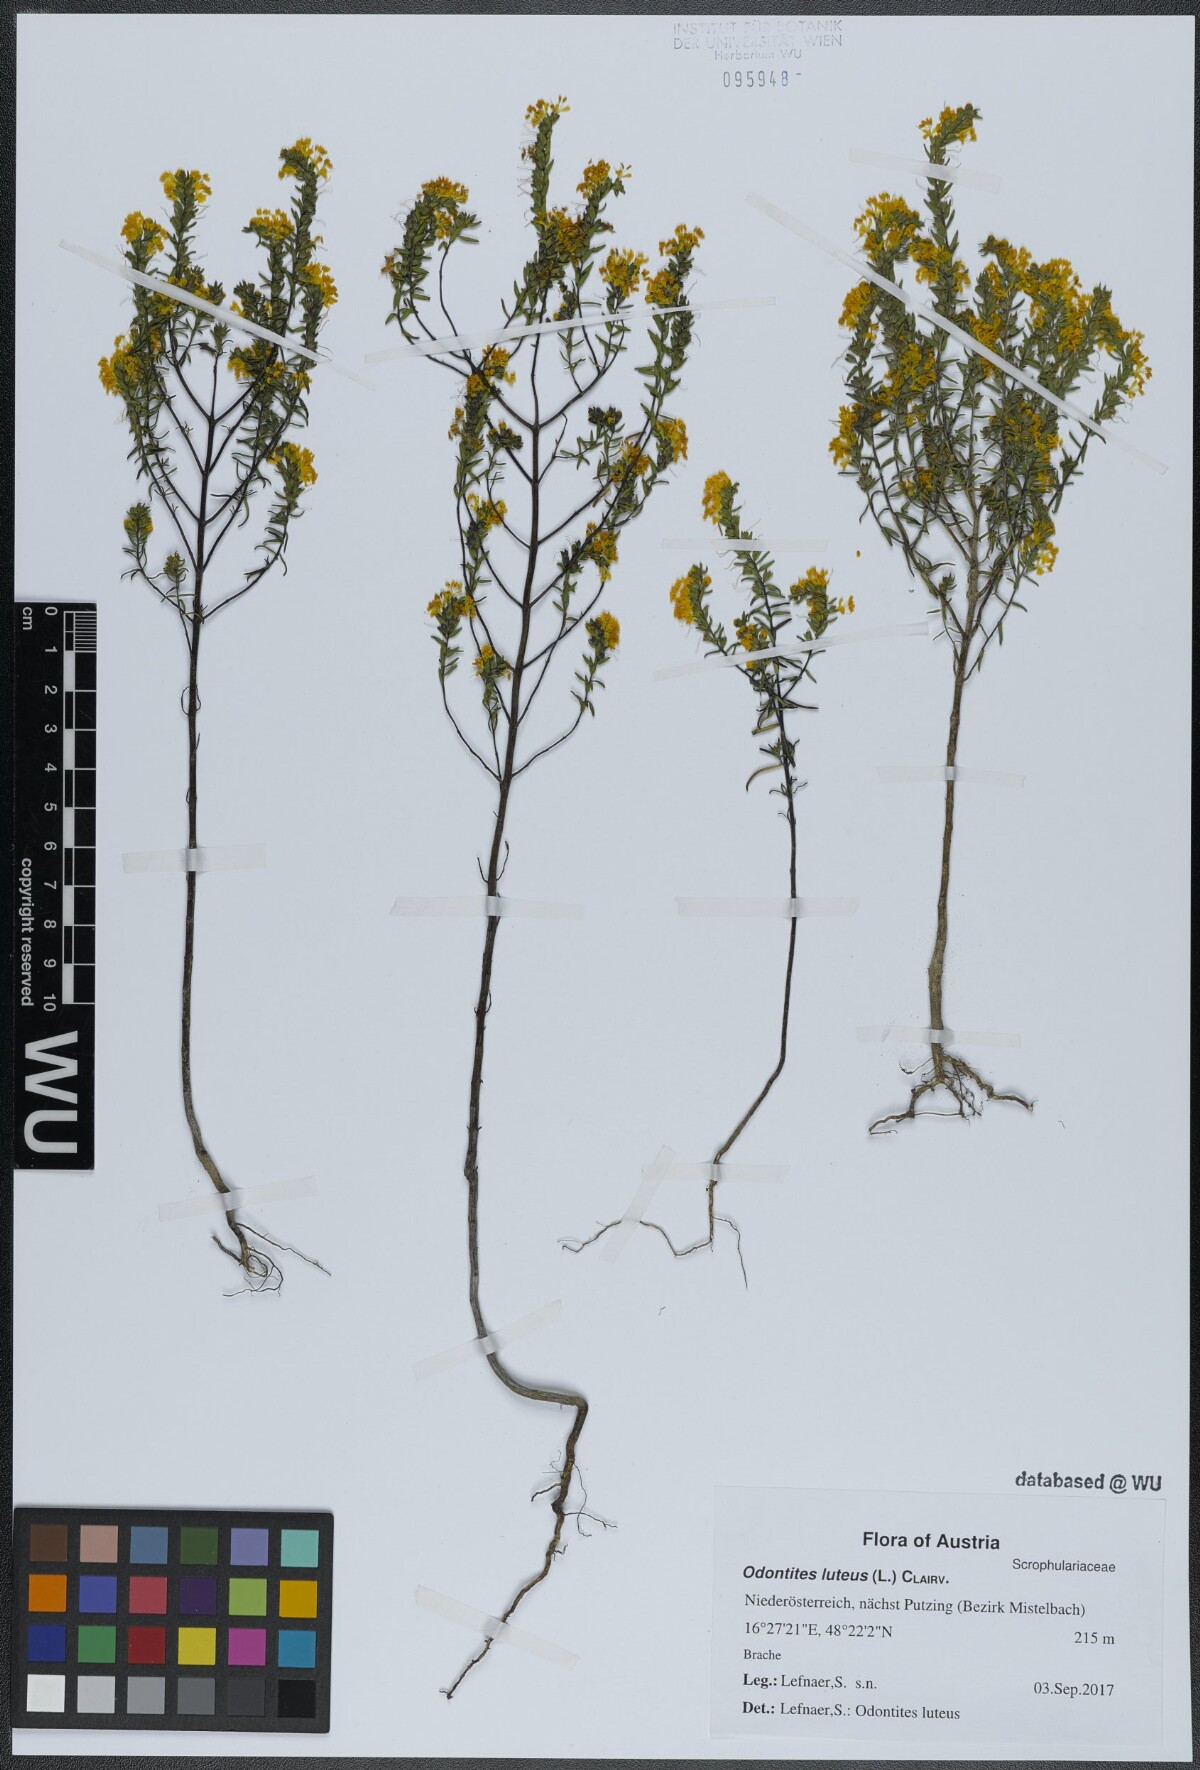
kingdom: Plantae
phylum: Tracheophyta
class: Magnoliopsida
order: Lamiales
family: Orobanchaceae
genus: Odontites
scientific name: Odontites luteus
